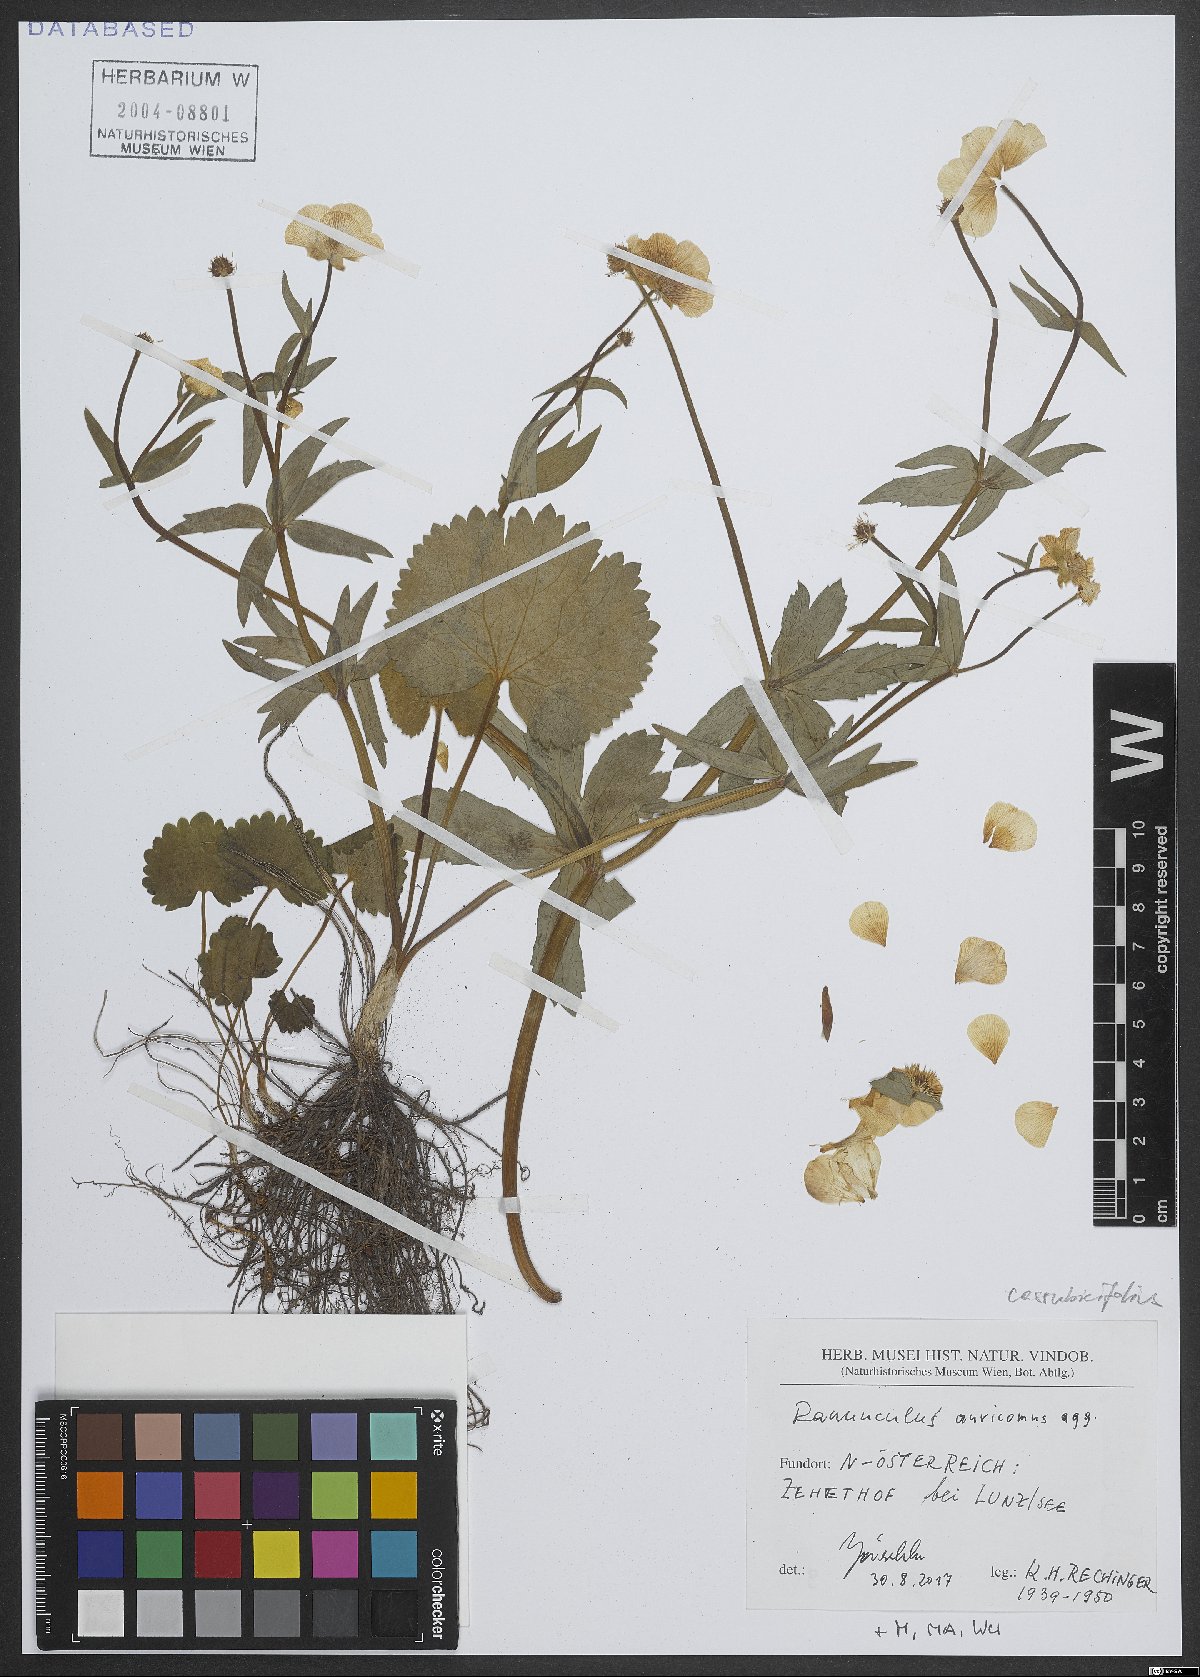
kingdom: Plantae
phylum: Tracheophyta
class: Magnoliopsida
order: Ranunculales
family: Ranunculaceae
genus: Ranunculus
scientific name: Ranunculus auricomus
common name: Goldilocks buttercup
